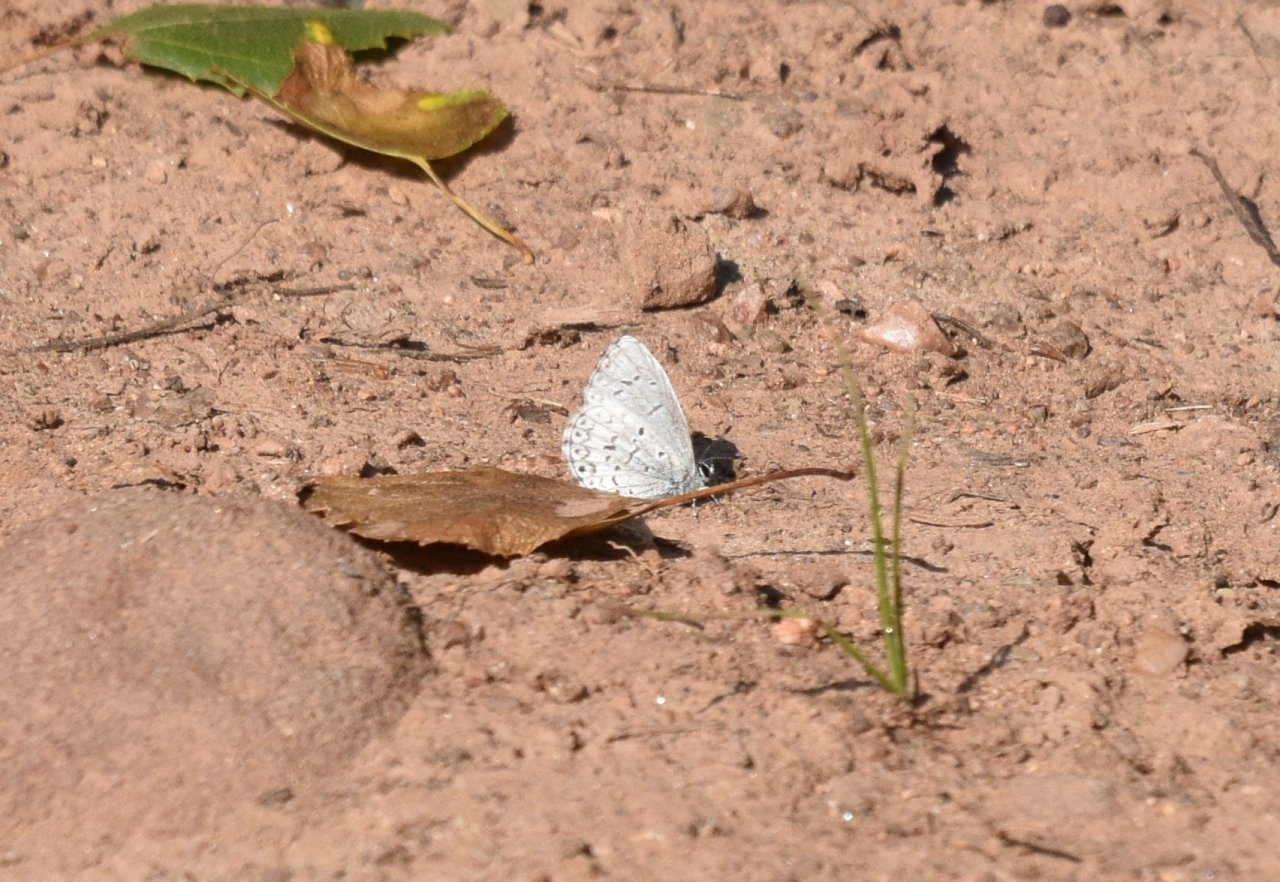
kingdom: Animalia
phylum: Arthropoda
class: Insecta
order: Lepidoptera
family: Lycaenidae
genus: Celastrina
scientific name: Celastrina lucia
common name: Northern Spring Azure
